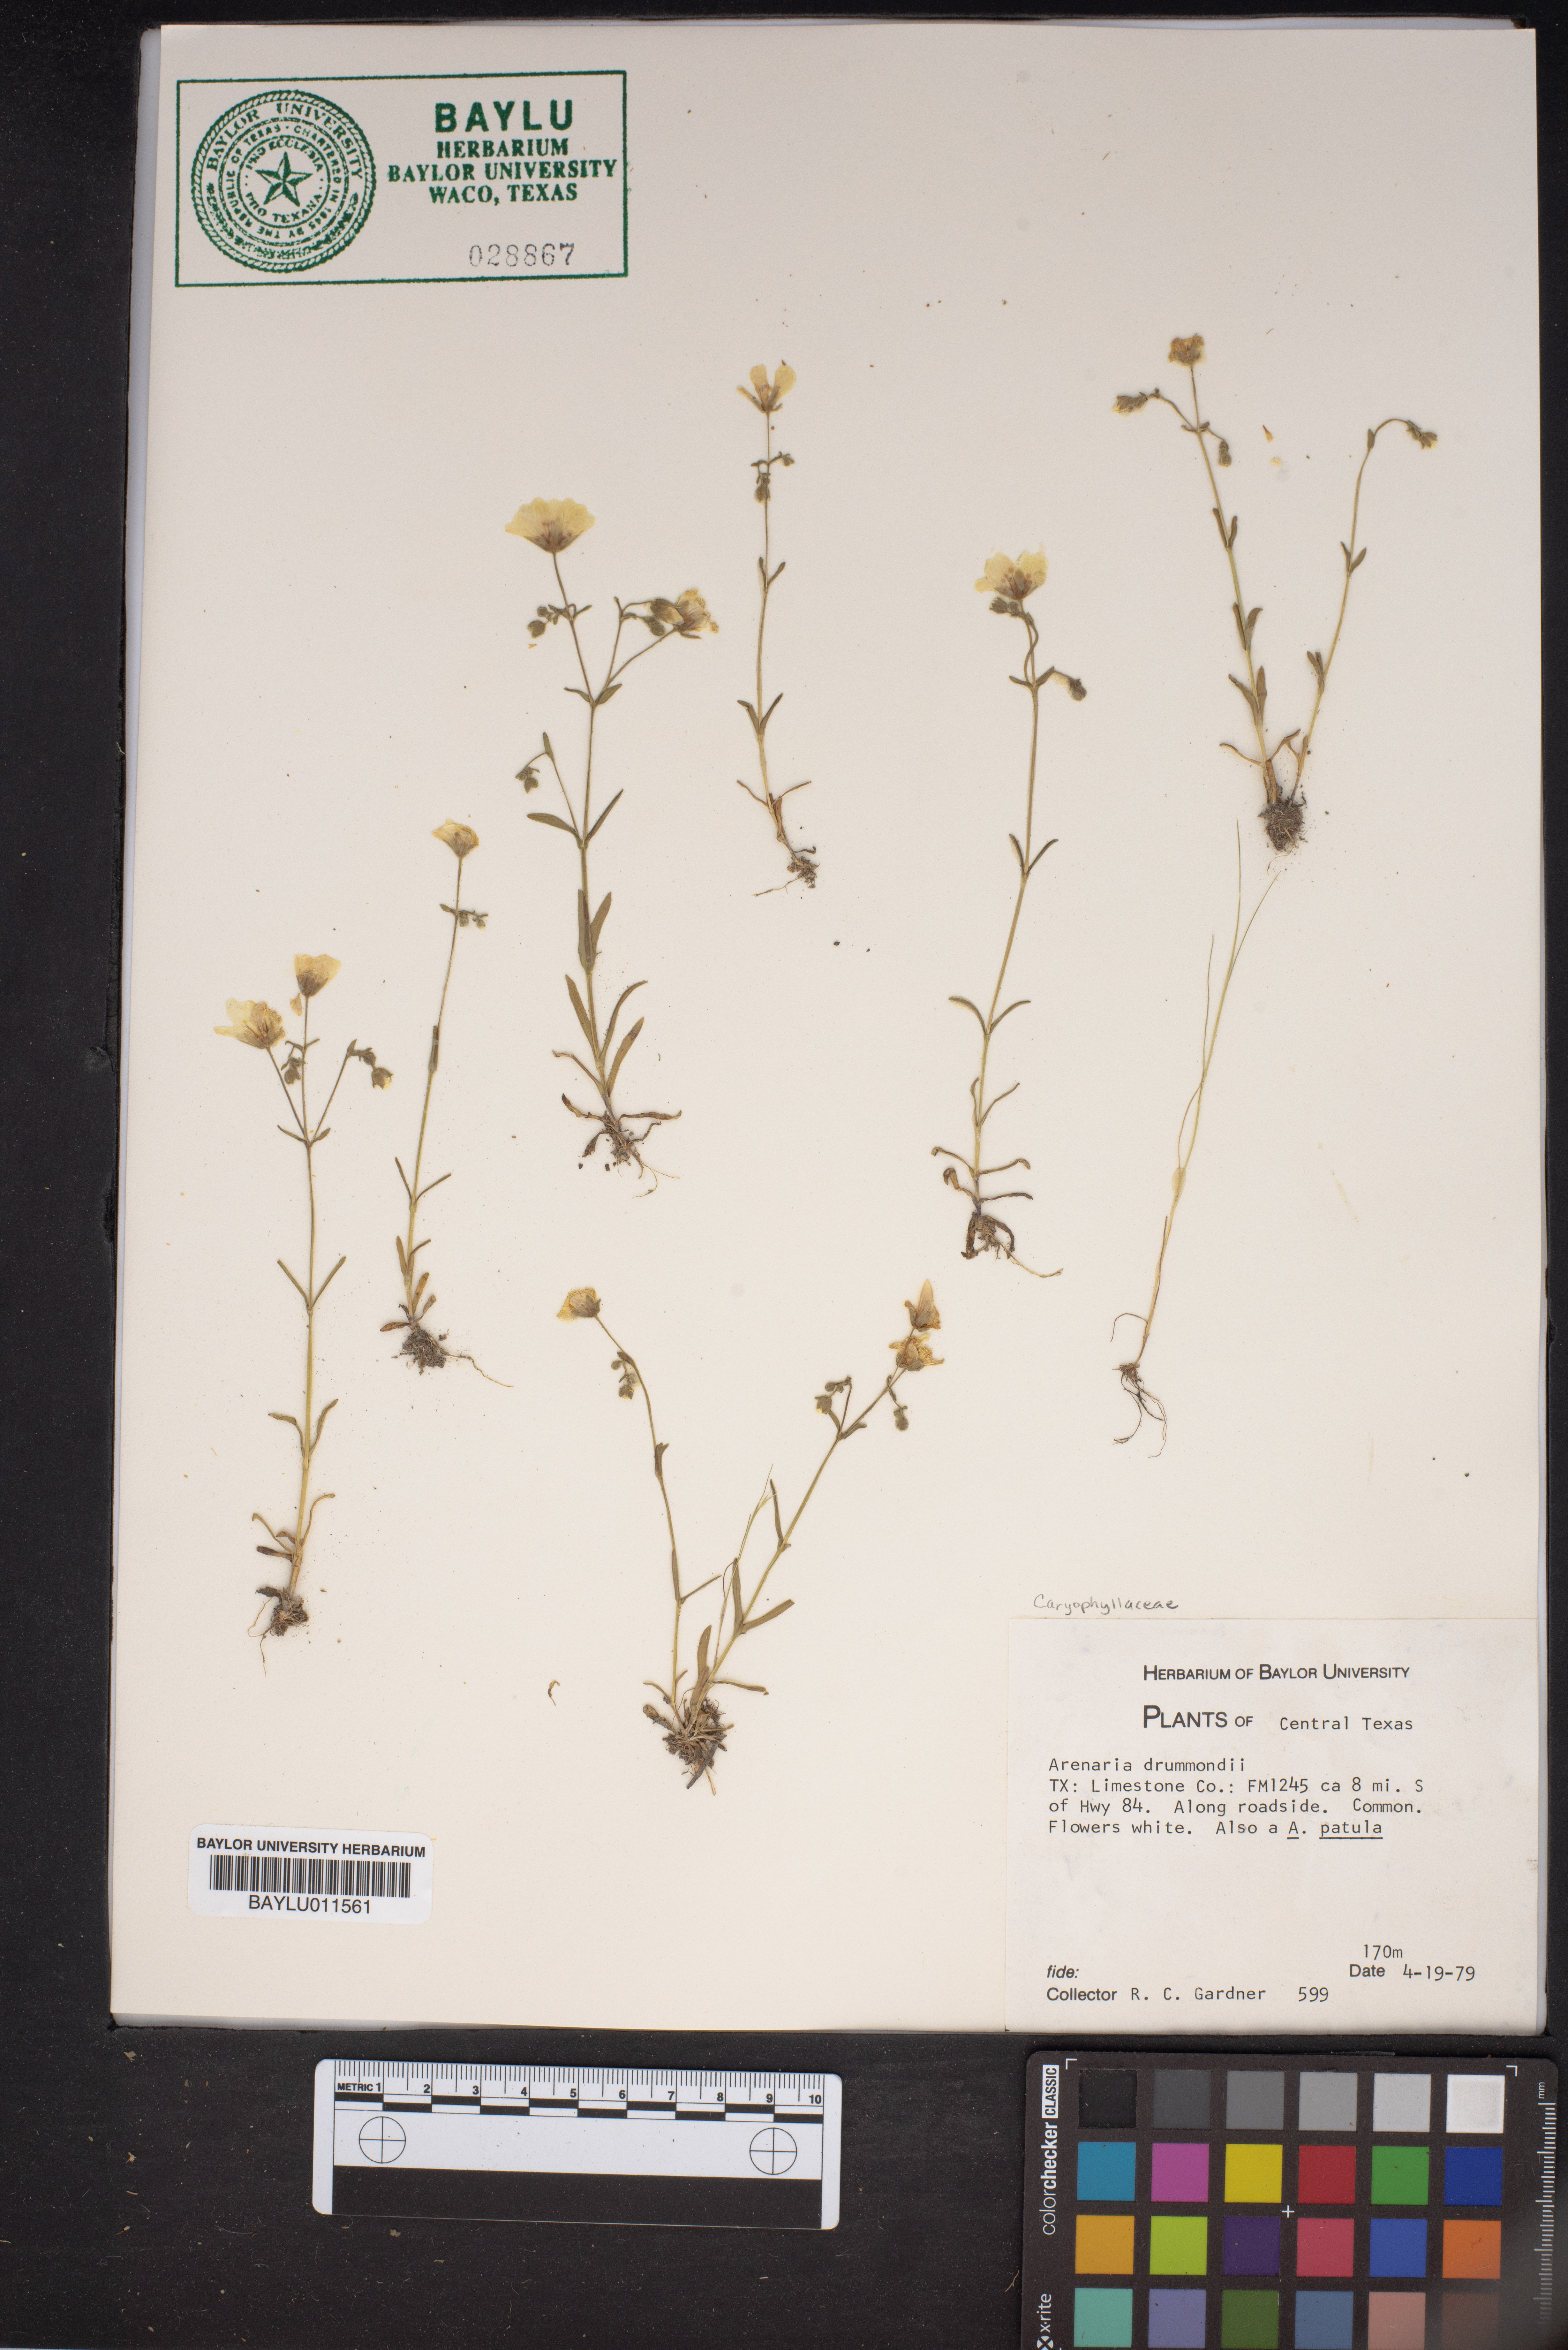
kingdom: Plantae
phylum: Tracheophyta
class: Magnoliopsida
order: Caryophyllales
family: Caryophyllaceae
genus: Geocarpon
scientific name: Geocarpon nuttallii
